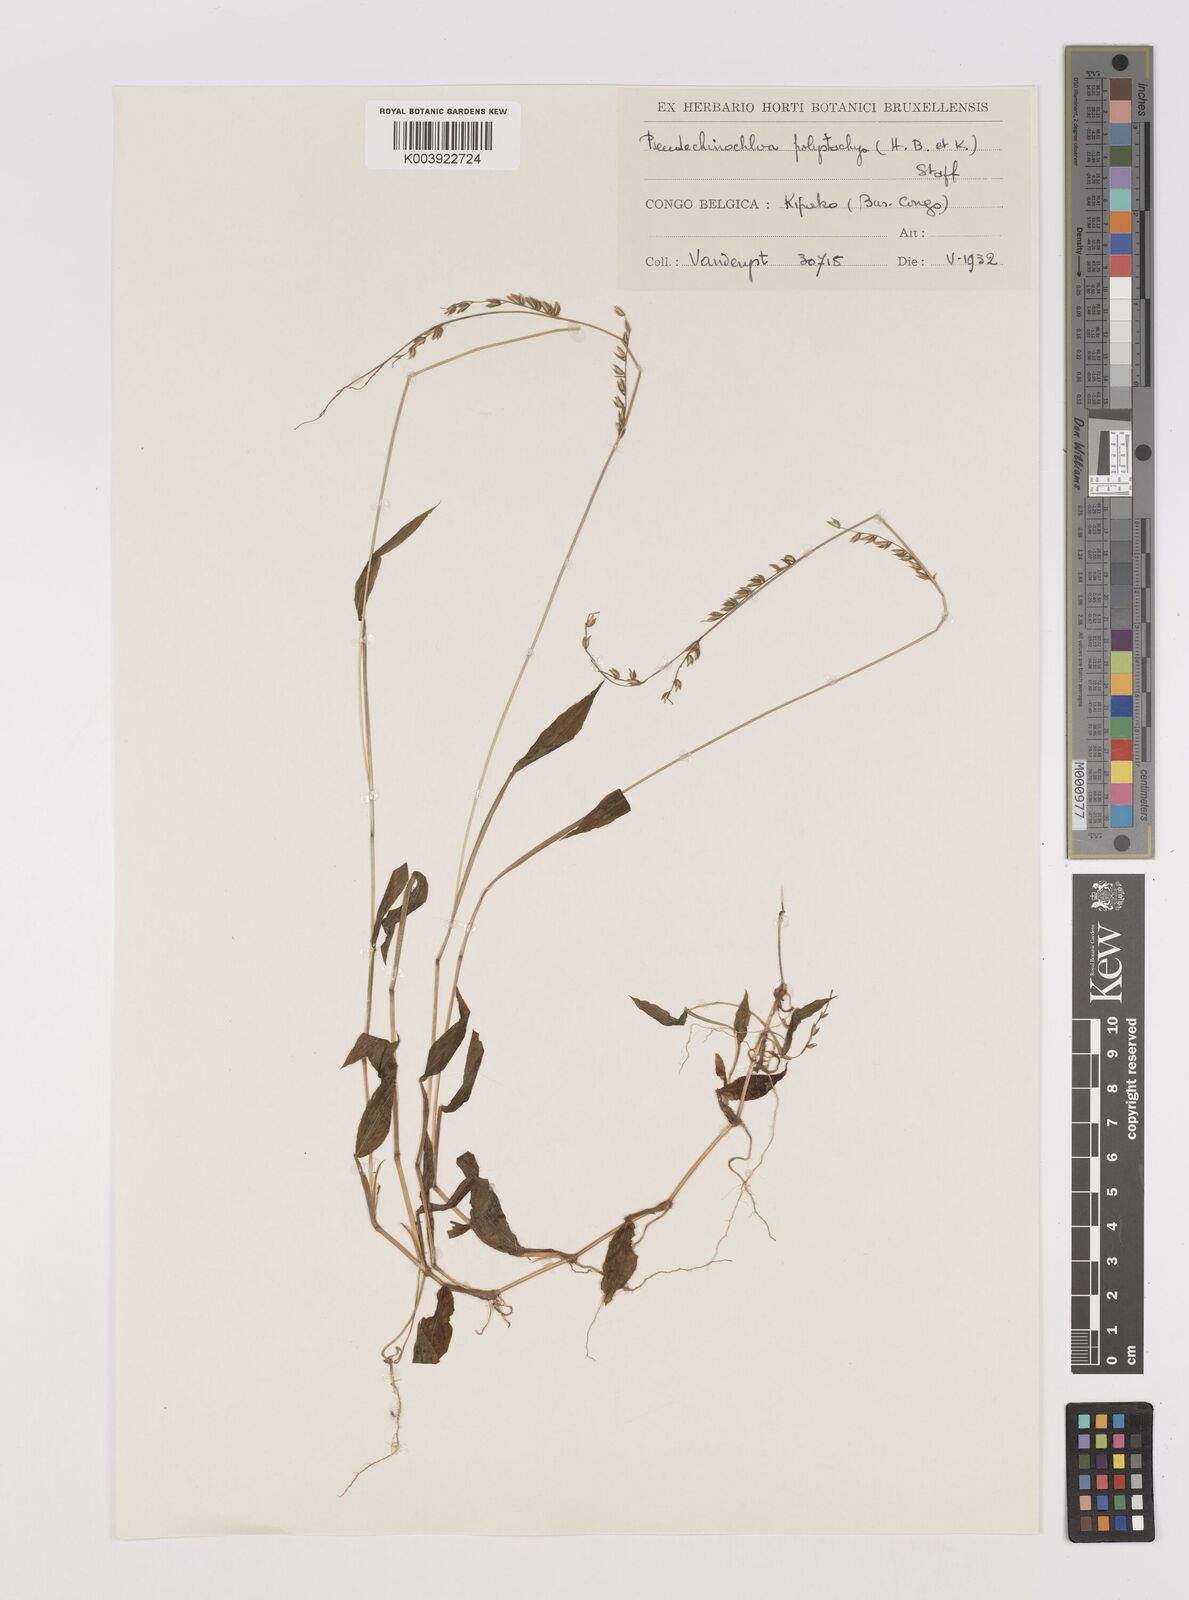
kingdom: Plantae
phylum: Tracheophyta
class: Liliopsida
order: Poales
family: Poaceae
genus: Pseudechinolaena
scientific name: Pseudechinolaena polystachya
